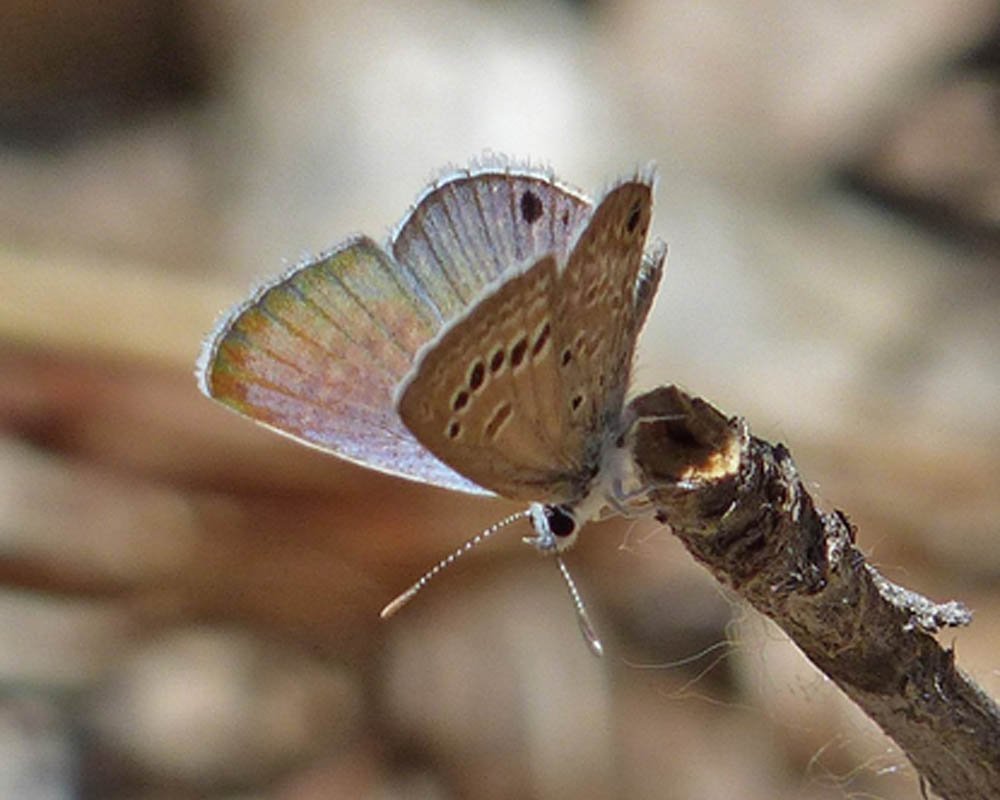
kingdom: Animalia
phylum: Arthropoda
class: Insecta
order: Lepidoptera
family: Lycaenidae
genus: Echinargus
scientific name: Echinargus isola
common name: Reakirt's Blue
